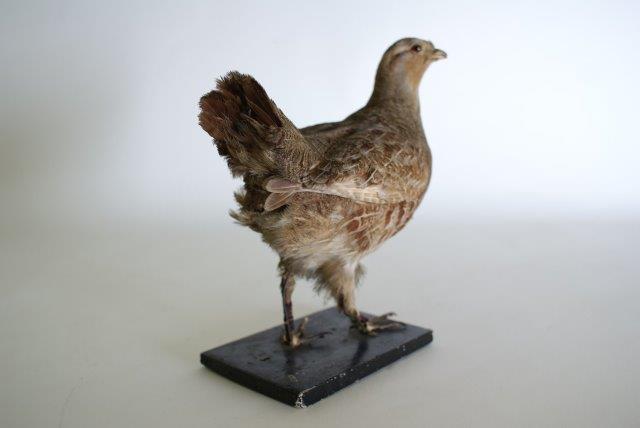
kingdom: Animalia
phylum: Chordata
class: Aves
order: Galliformes
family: Phasianidae
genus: Perdix
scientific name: Perdix perdix
